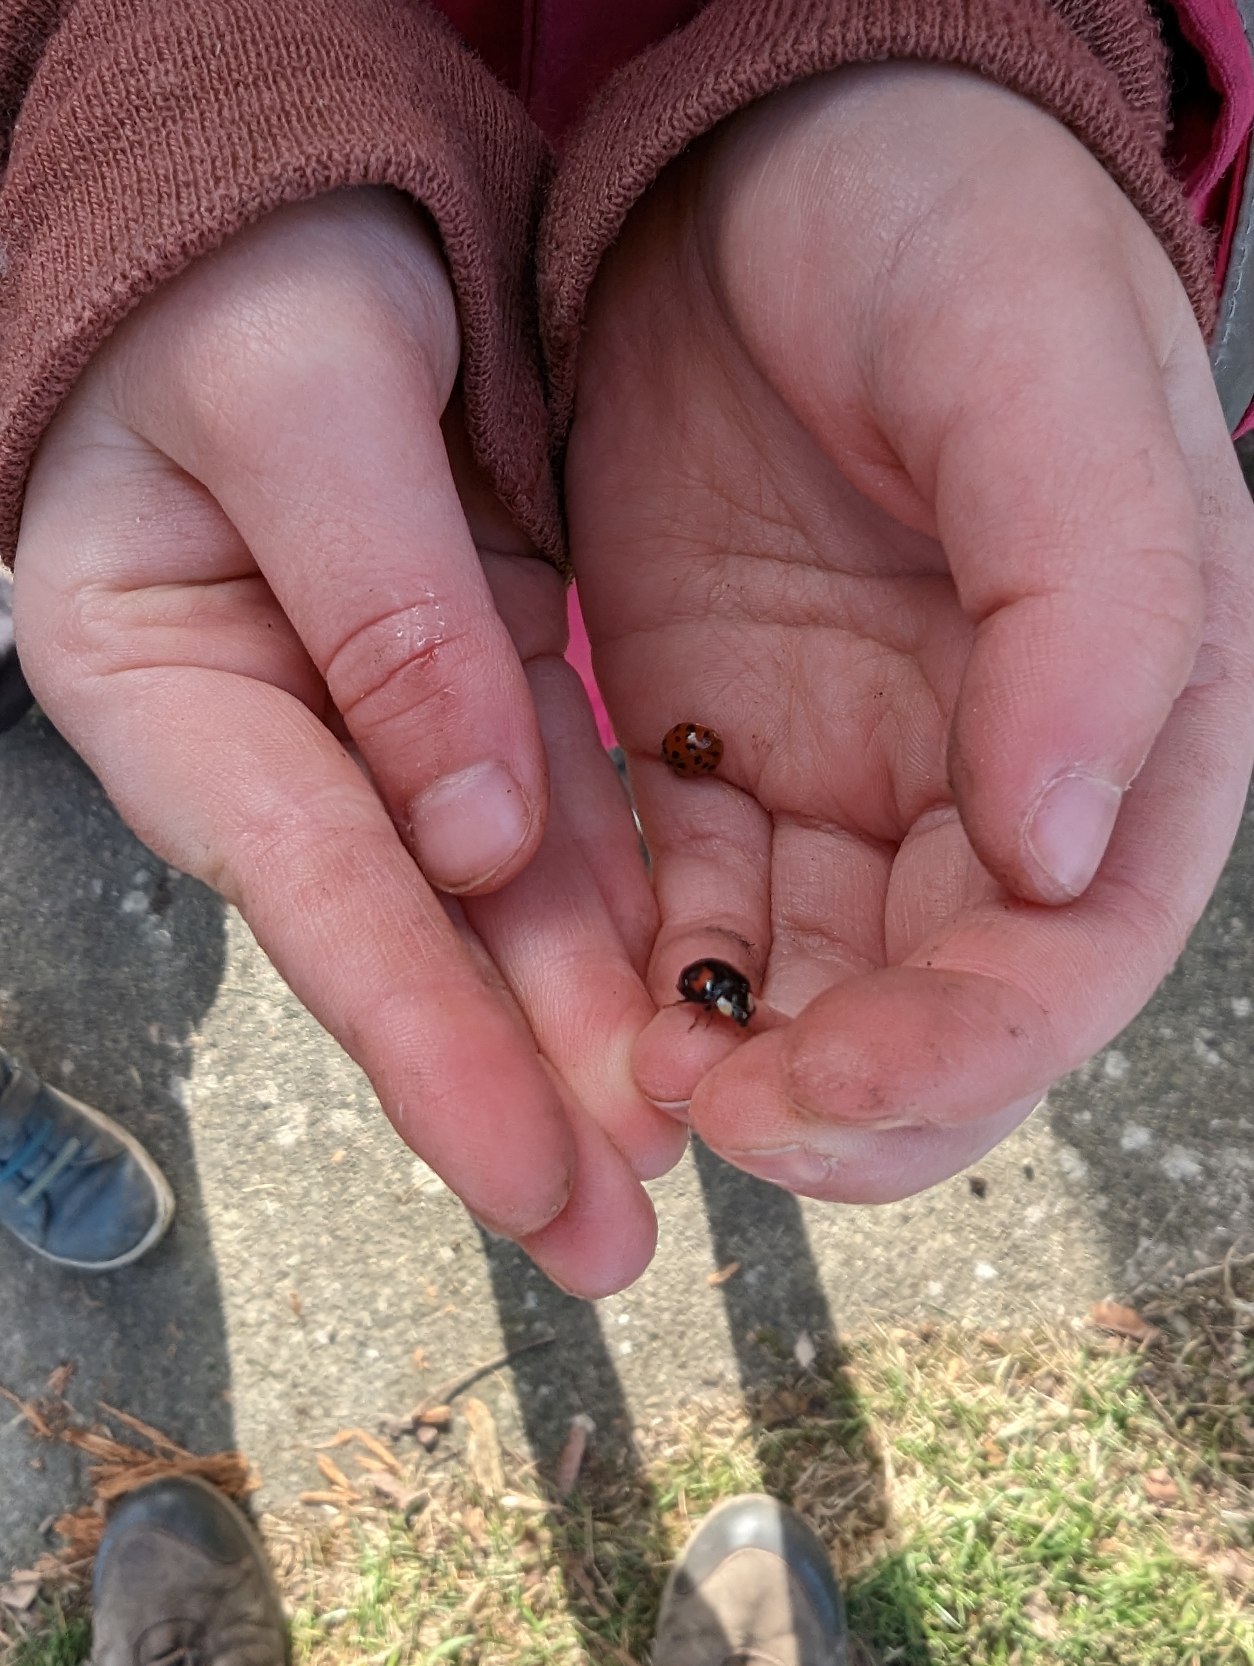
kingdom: Animalia
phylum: Arthropoda
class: Insecta
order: Coleoptera
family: Coccinellidae
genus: Harmonia
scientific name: Harmonia axyridis
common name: Harlekinmariehøne
